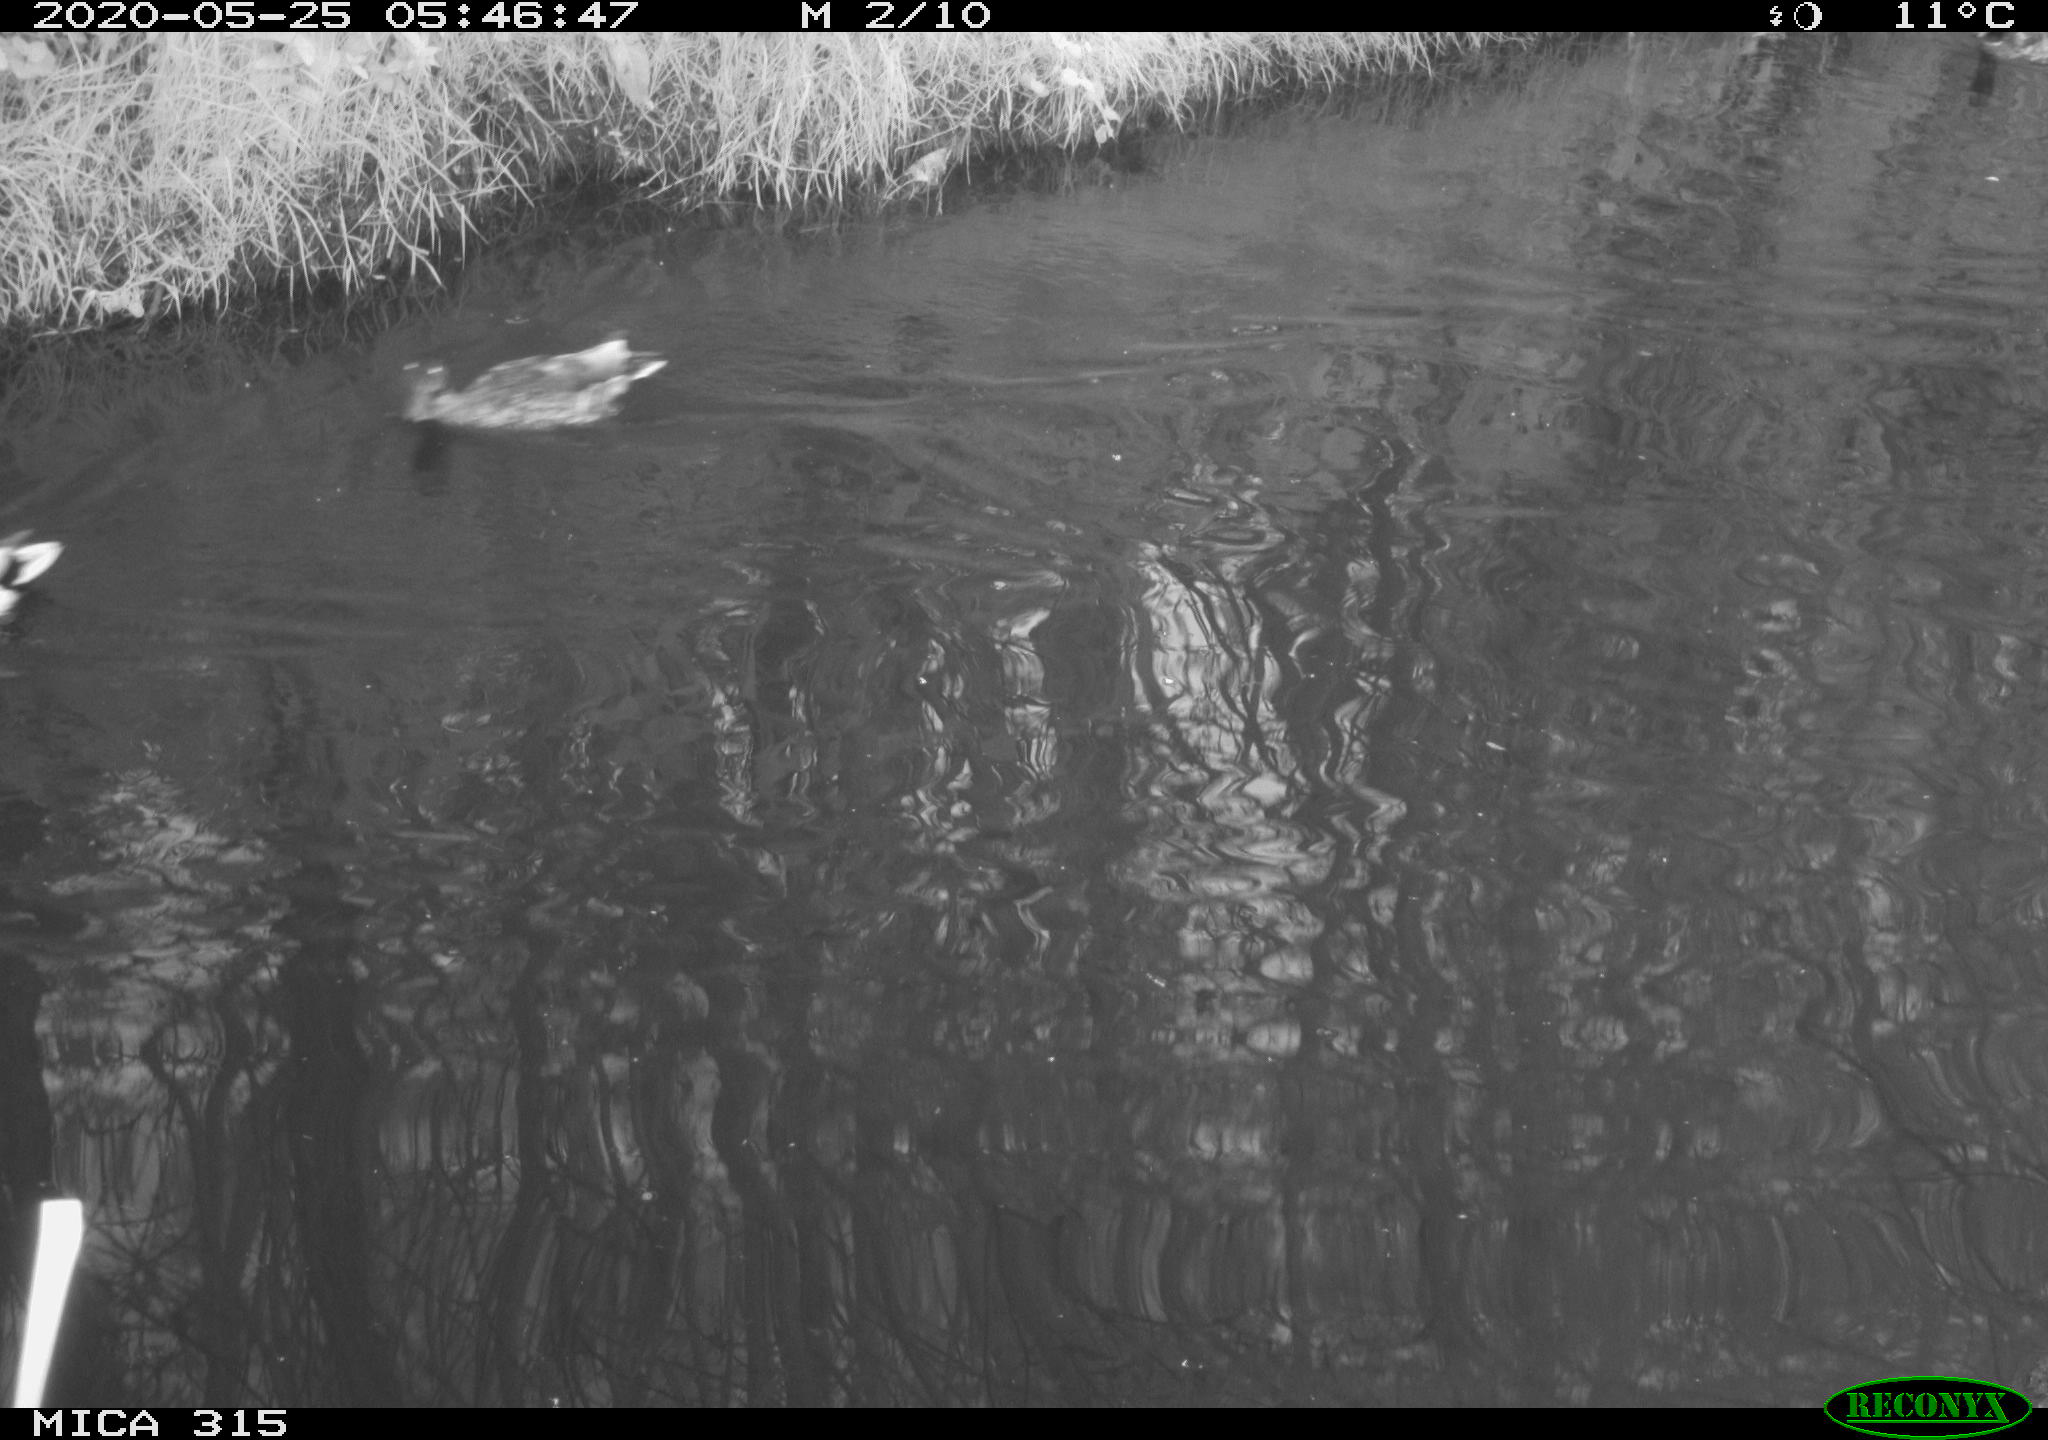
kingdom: Animalia
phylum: Chordata
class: Aves
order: Anseriformes
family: Anatidae
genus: Anas
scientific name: Anas platyrhynchos
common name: Mallard
